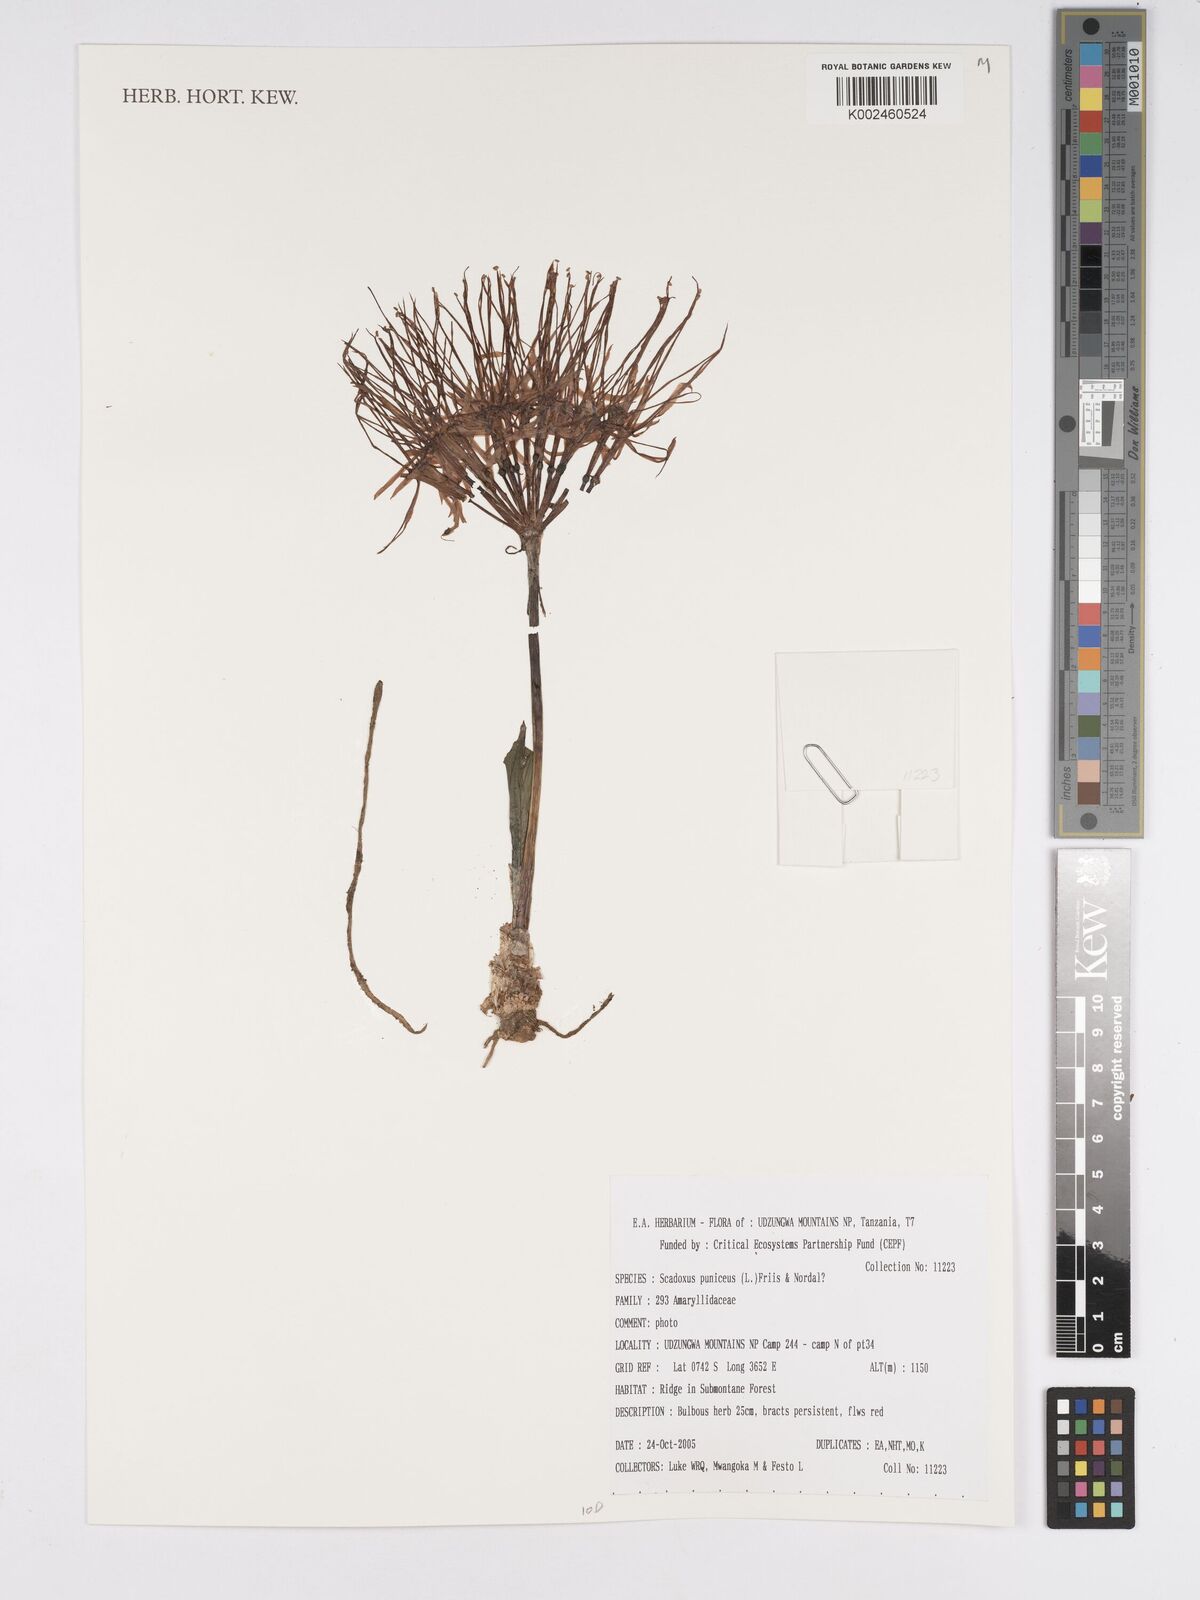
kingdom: Plantae
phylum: Tracheophyta
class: Liliopsida
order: Asparagales
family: Amaryllidaceae
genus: Scadoxus
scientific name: Scadoxus puniceus
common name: Royal-paintbrush
